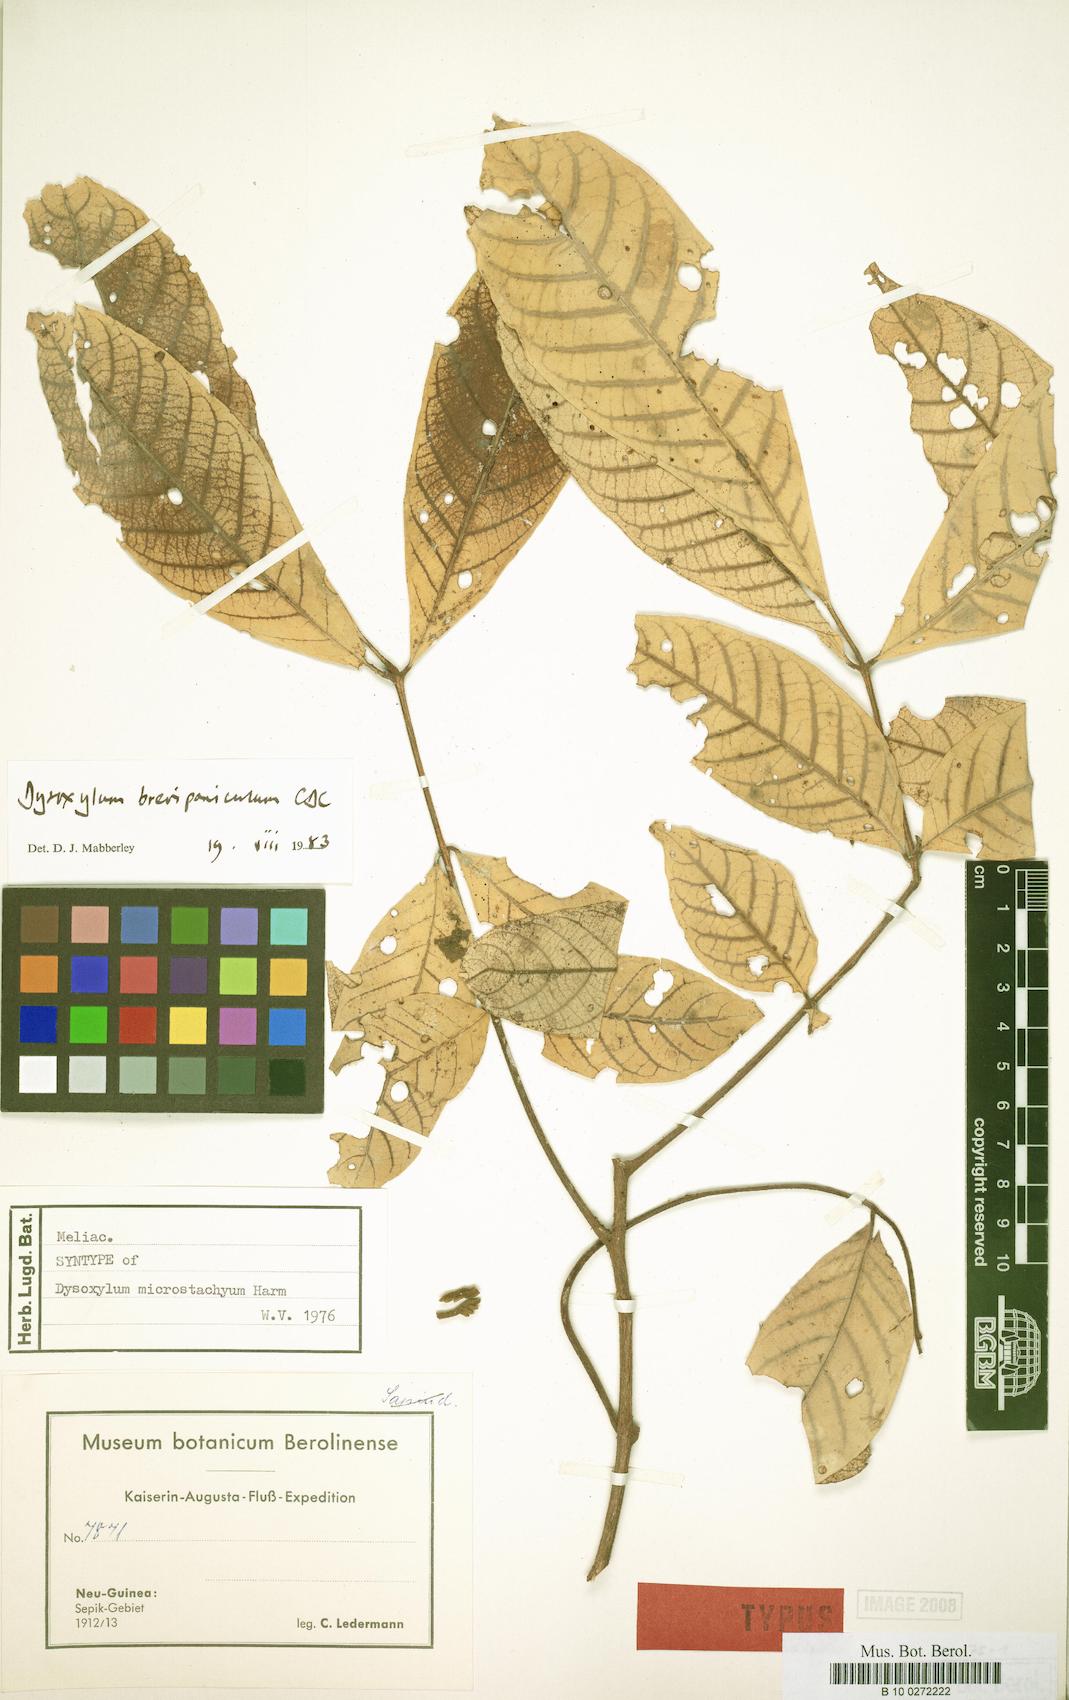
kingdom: Plantae
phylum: Tracheophyta
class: Magnoliopsida
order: Sapindales
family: Meliaceae
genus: Epicharis
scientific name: Epicharis brevipanicula
